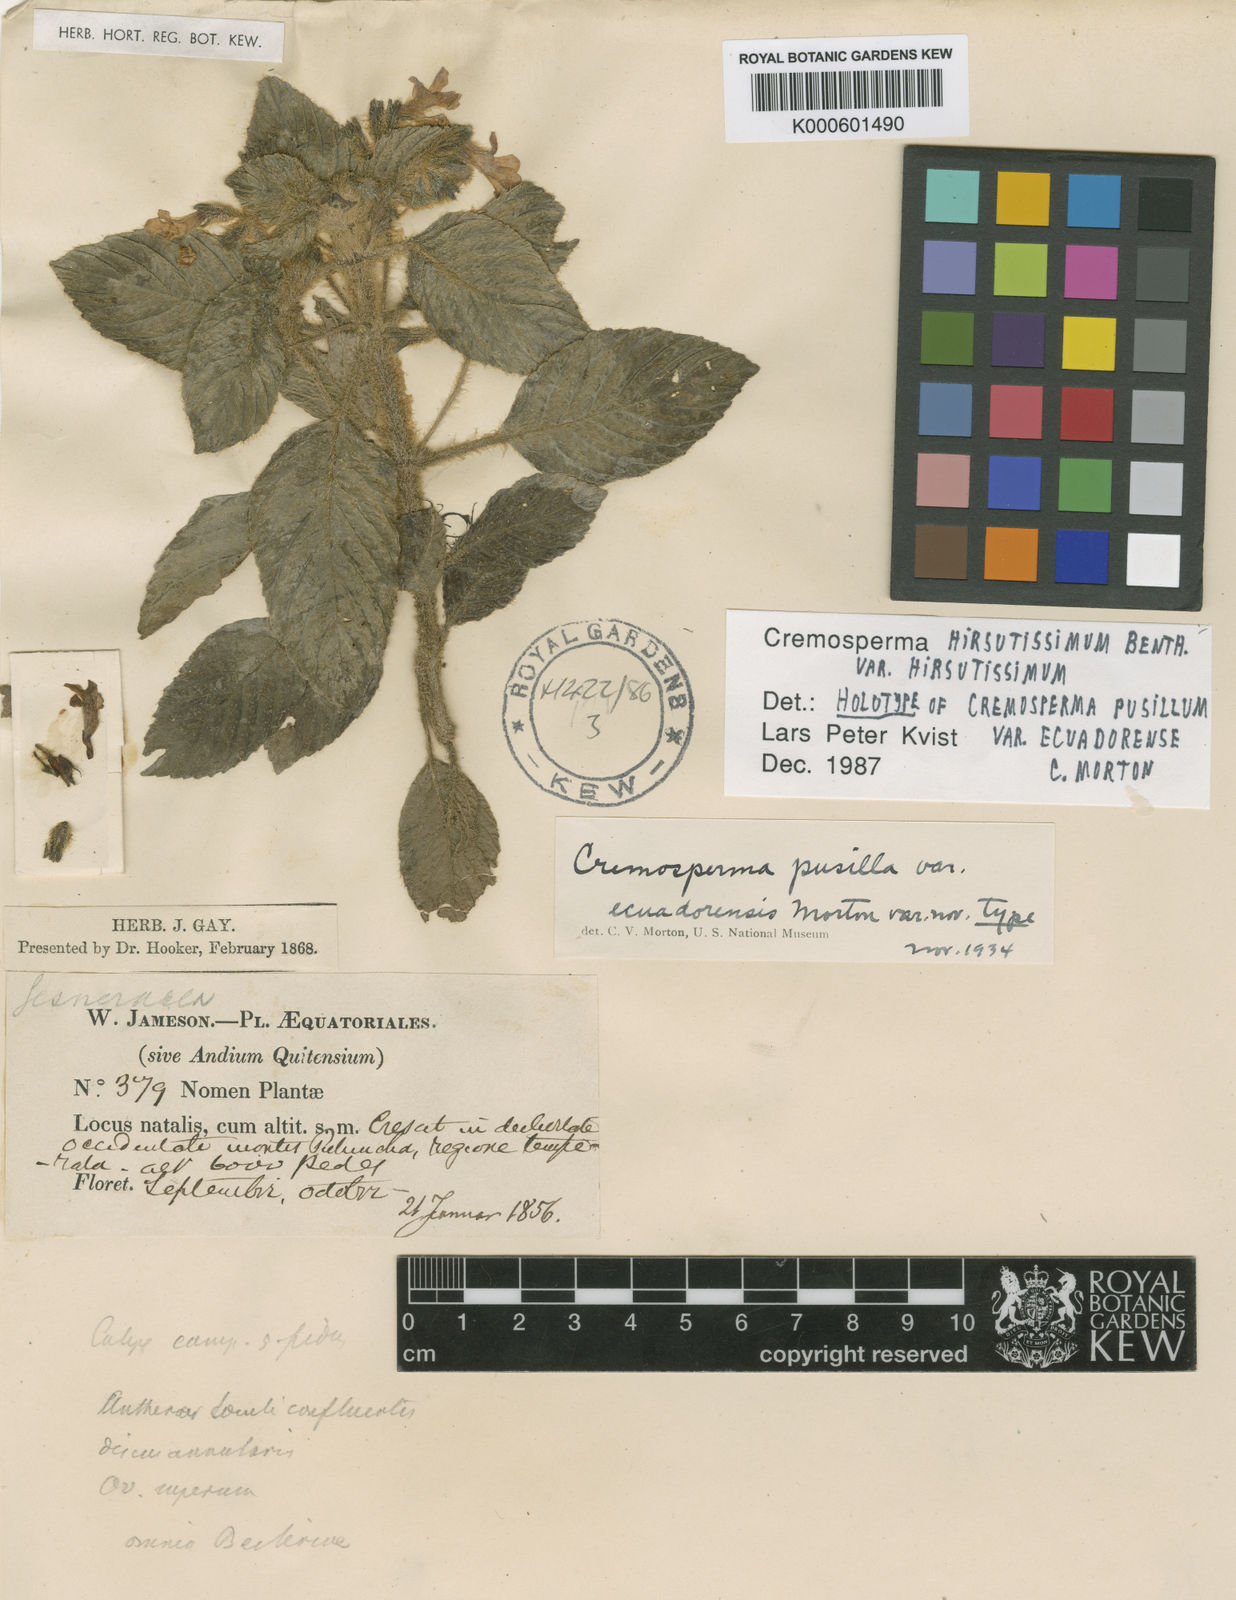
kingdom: Plantae
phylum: Tracheophyta
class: Magnoliopsida
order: Lamiales
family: Gesneriaceae
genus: Cremosperma
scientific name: Cremosperma hirsutissimum
